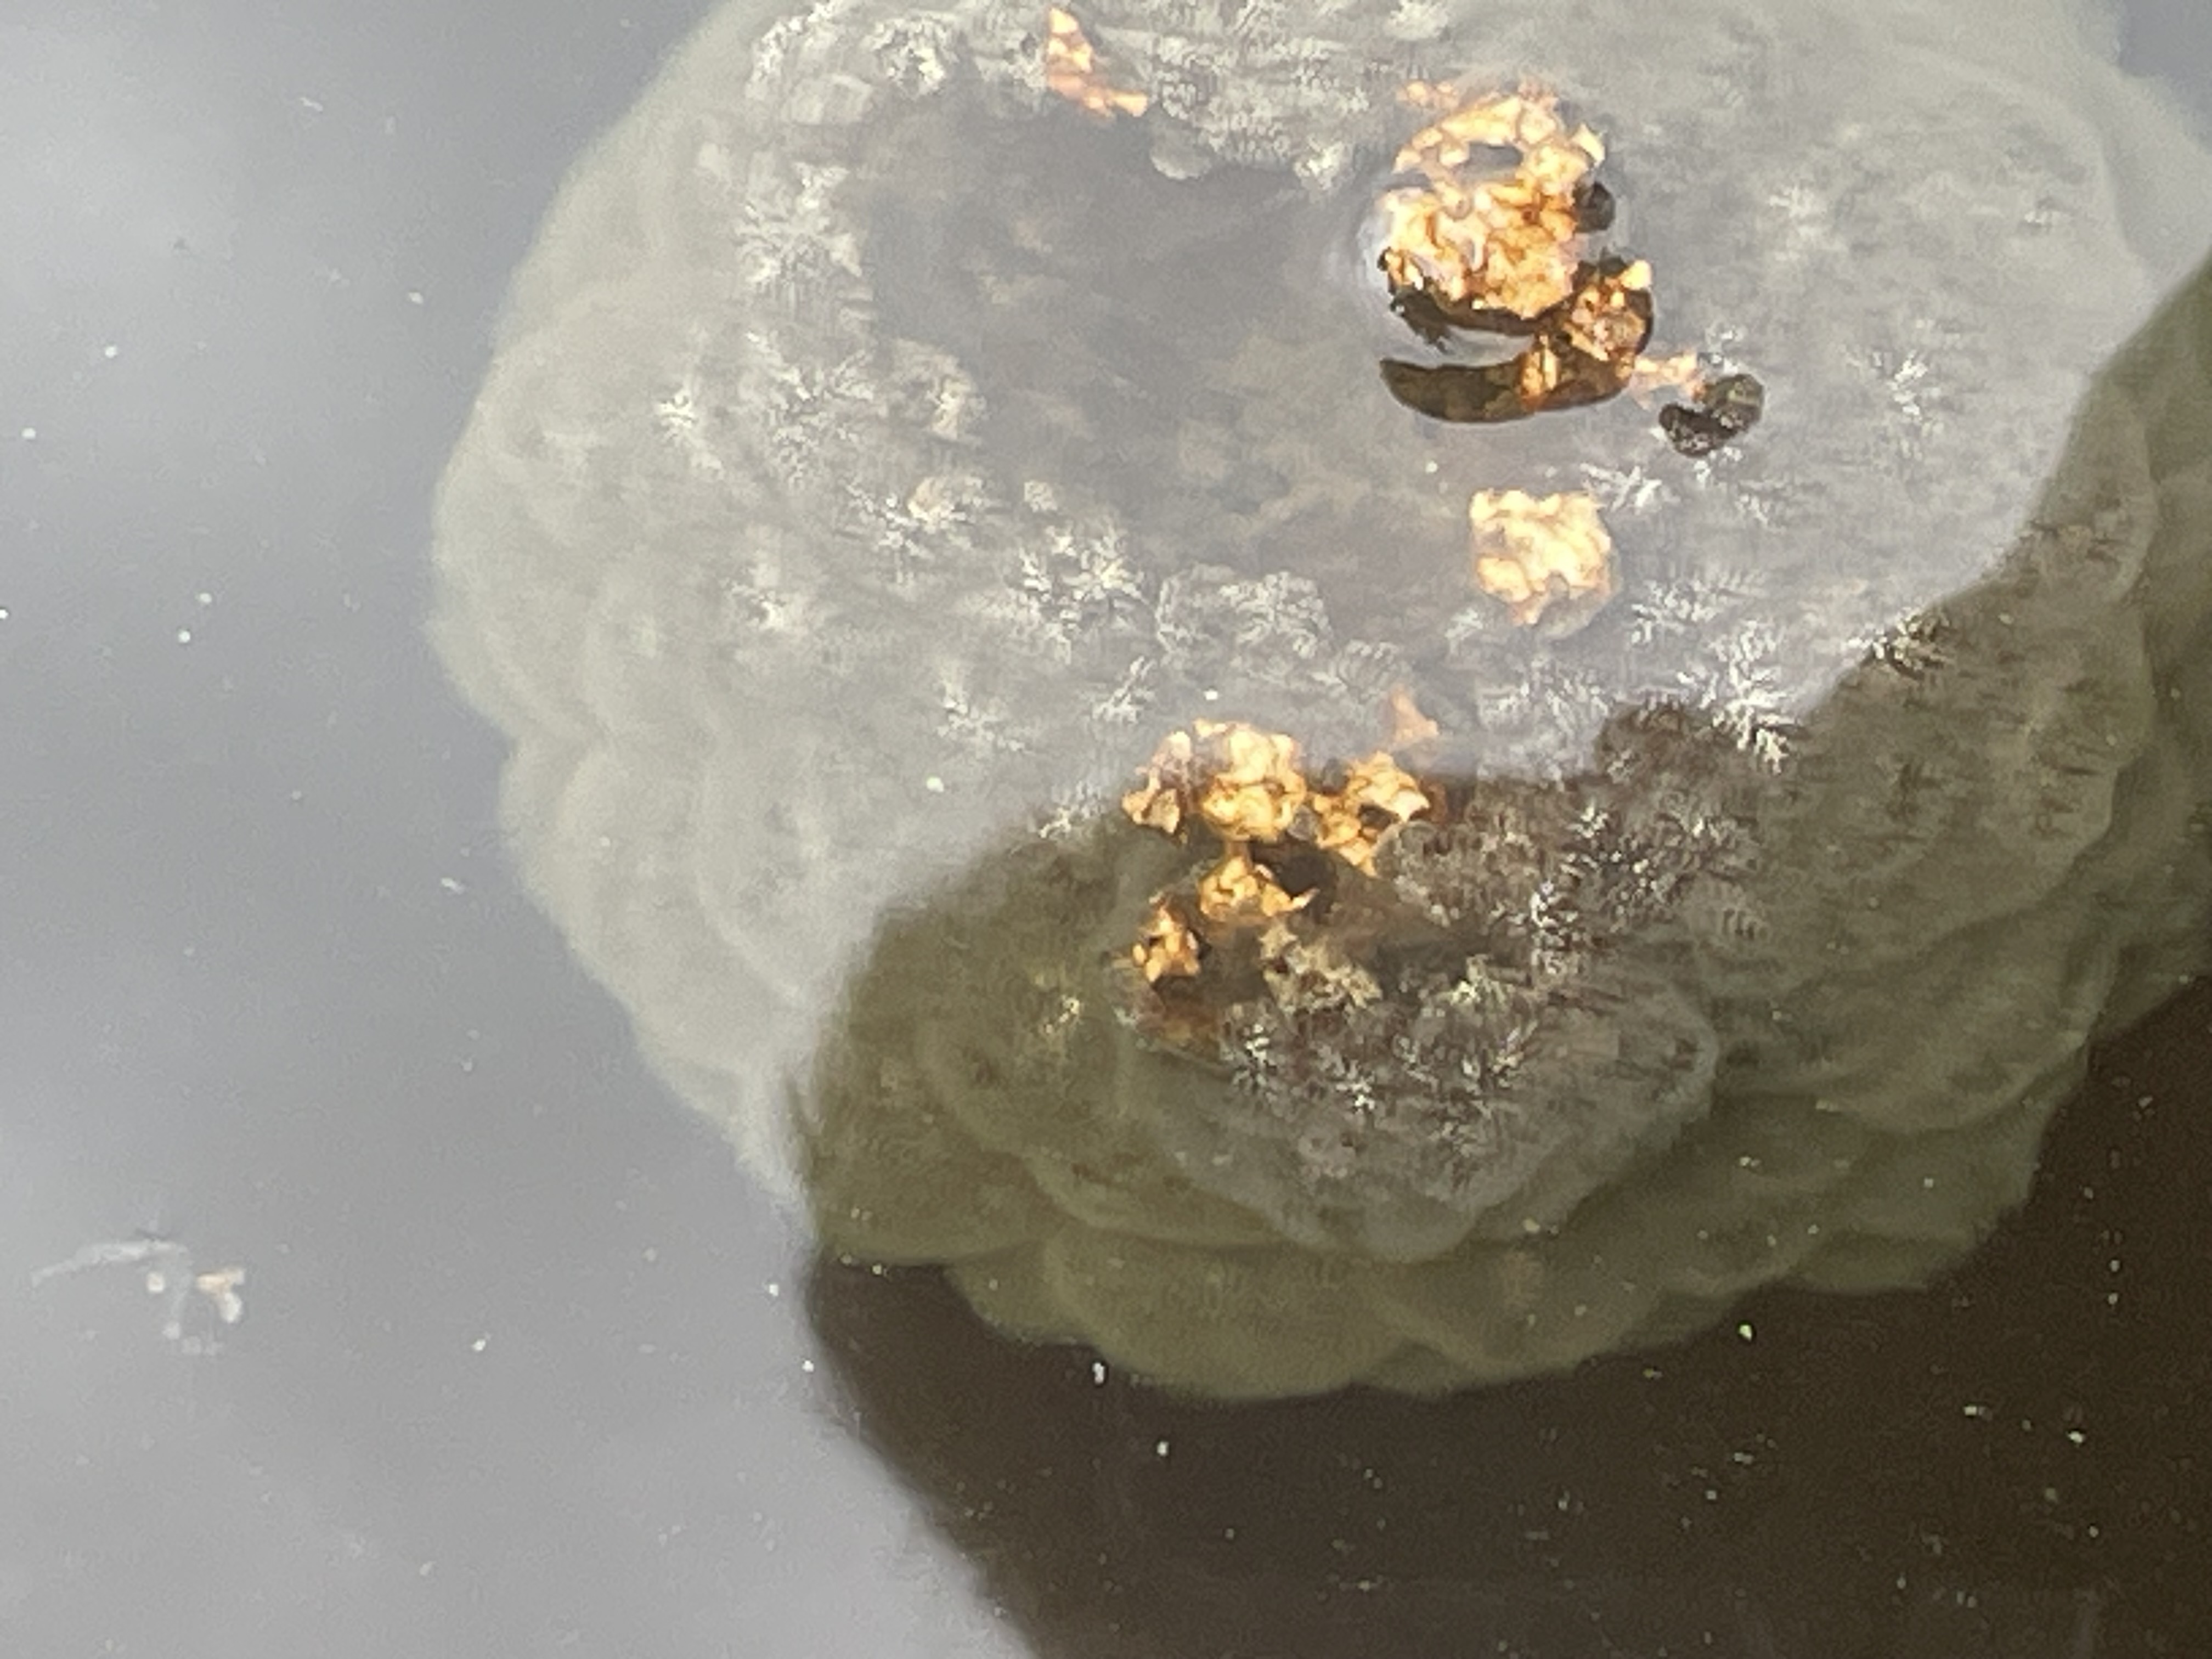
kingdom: Animalia
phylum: Bryozoa
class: Phylactolaemata
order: Plumatellida
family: Pectinatellidae
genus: Pectinatella
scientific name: Pectinatella magnifica
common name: Magnificent bryozoan
